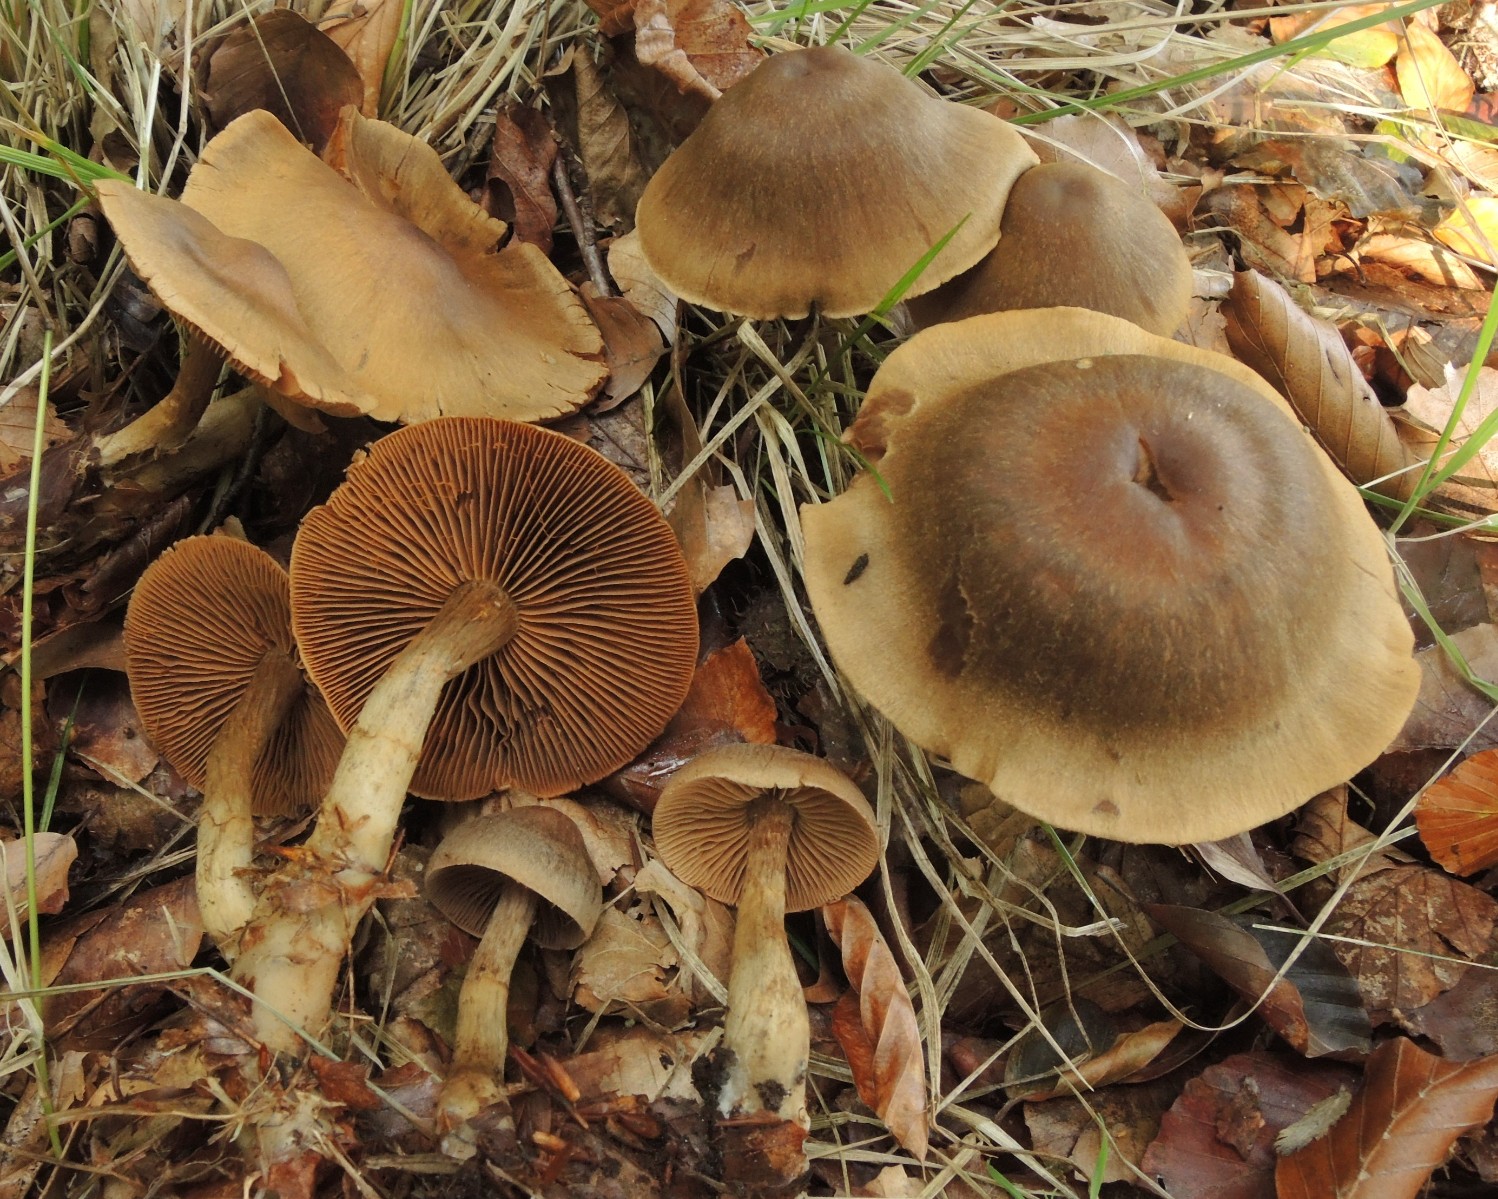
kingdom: Fungi
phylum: Basidiomycota
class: Agaricomycetes
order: Agaricales
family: Cortinariaceae
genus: Cortinarius
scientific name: Cortinarius raphanoides
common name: ræddike-slørhat
